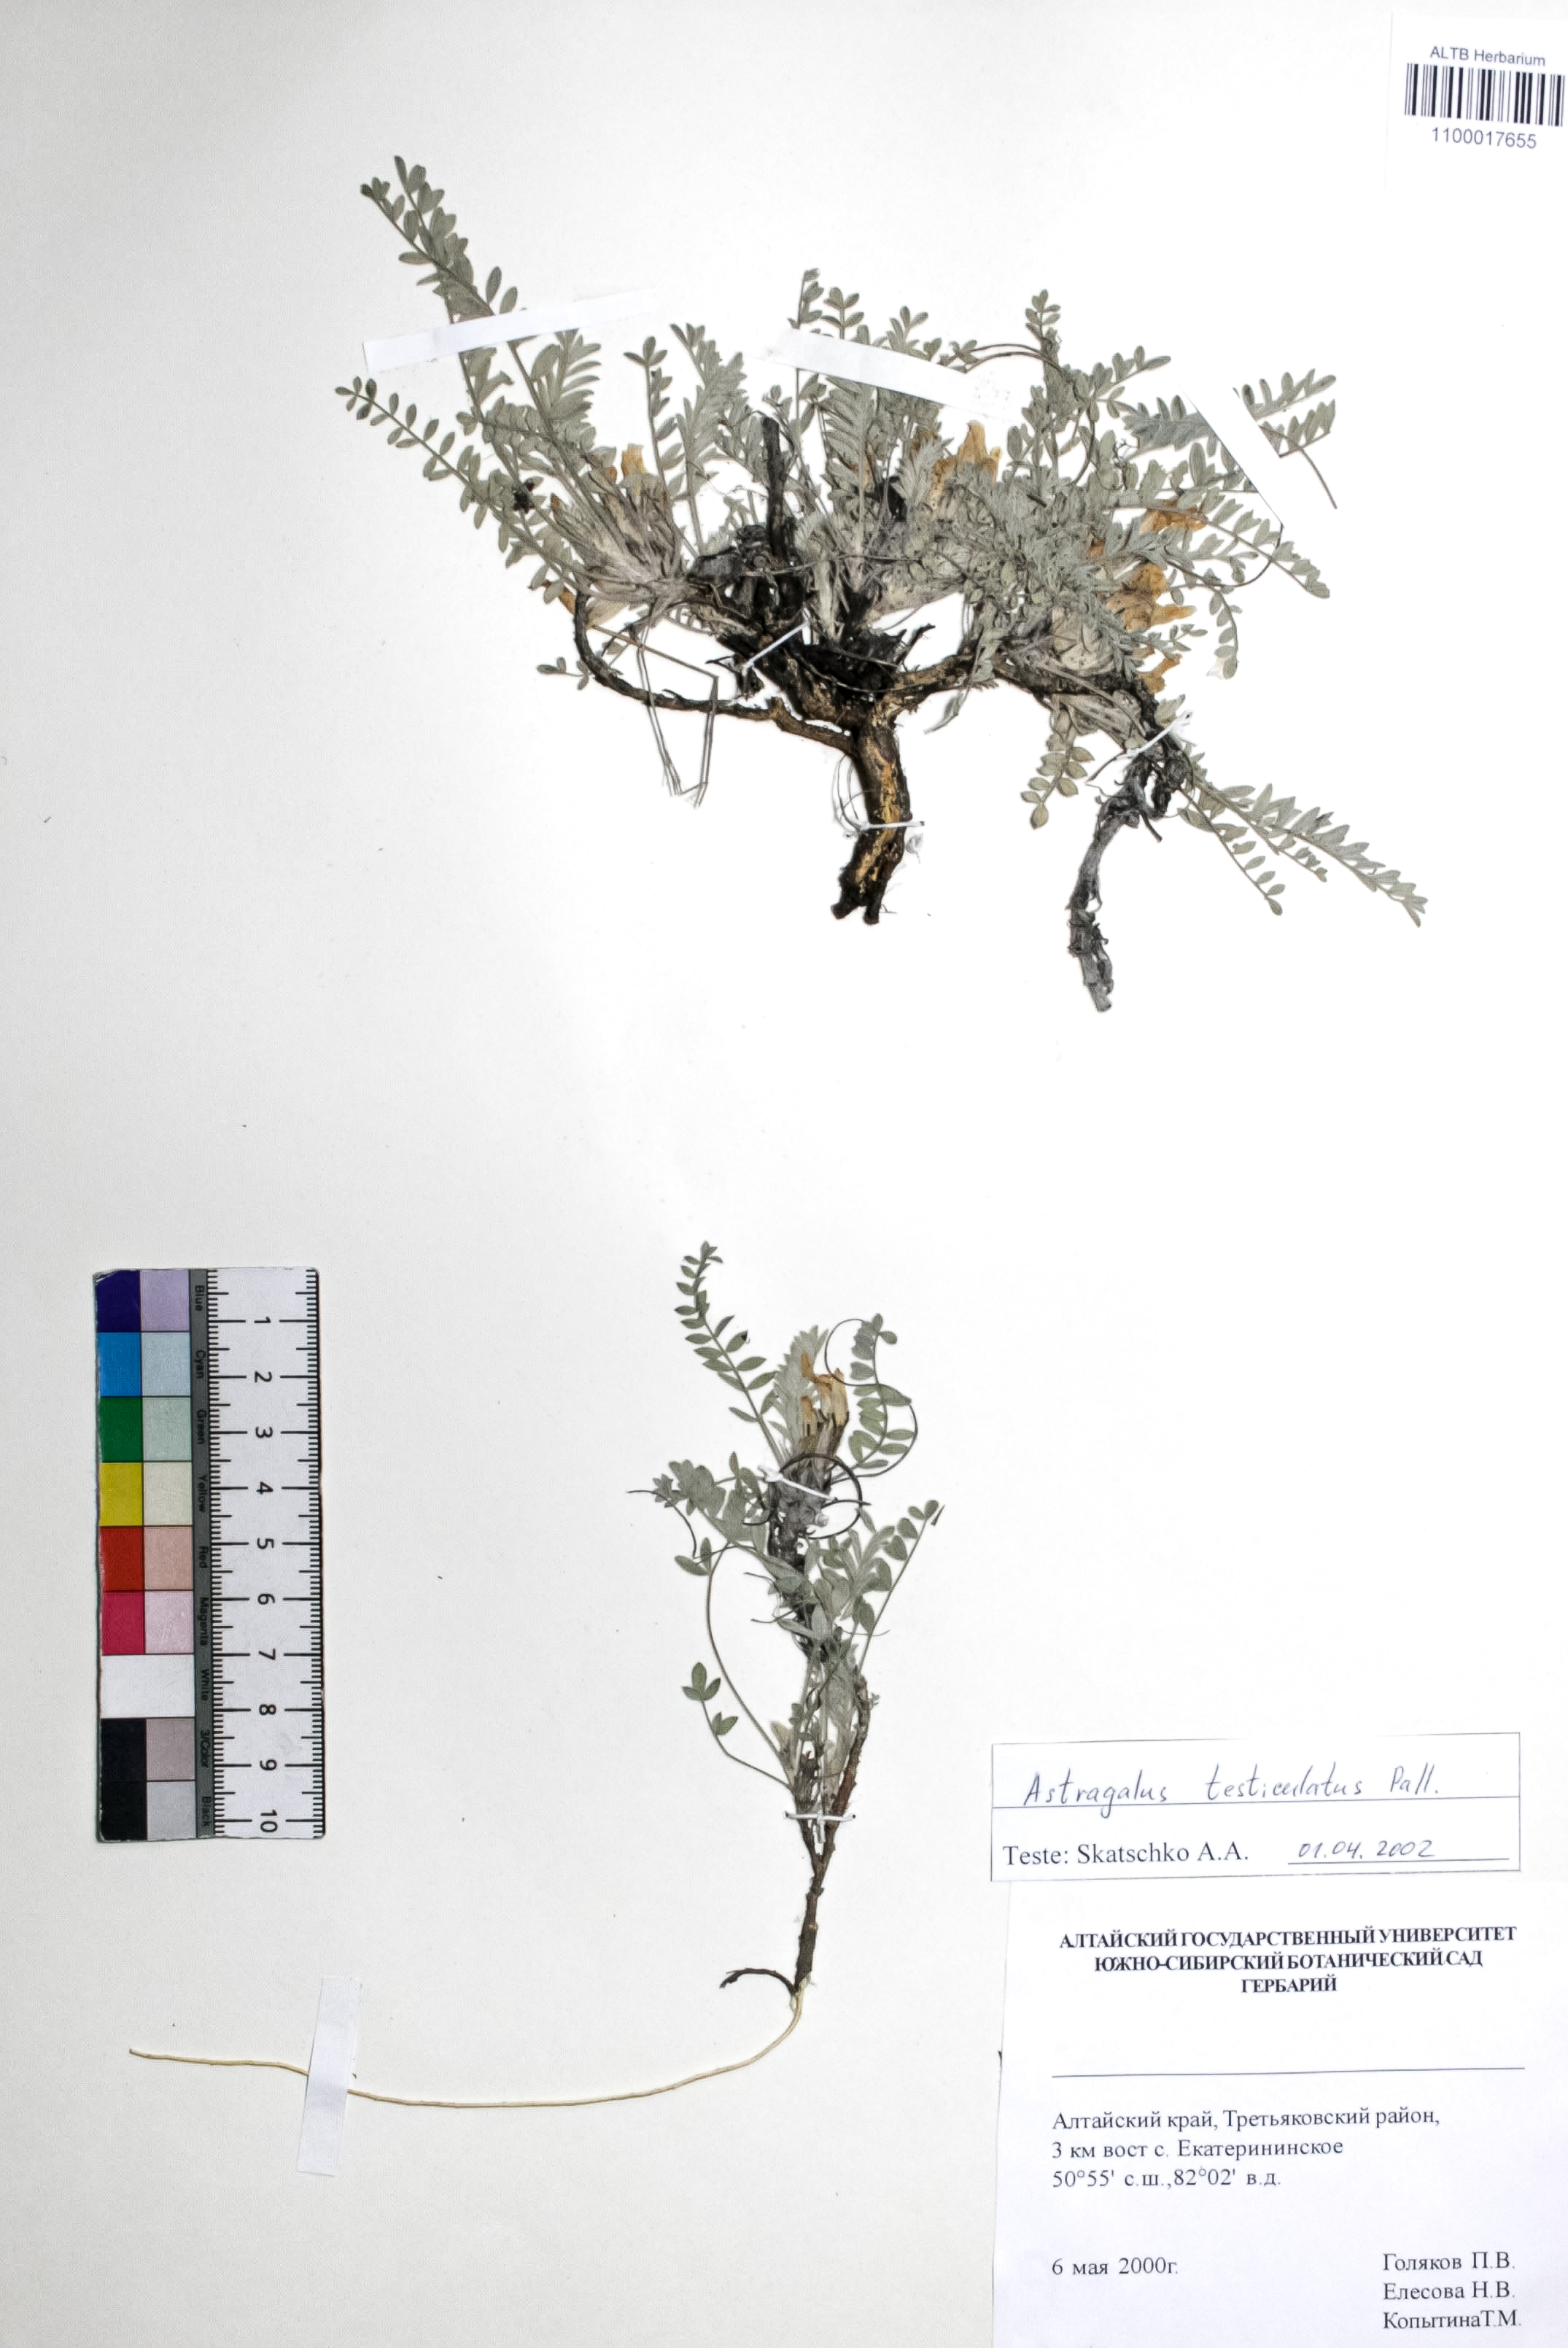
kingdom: Plantae
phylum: Tracheophyta
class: Magnoliopsida
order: Fabales
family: Fabaceae
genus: Astragalus
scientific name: Astragalus testiculatus
